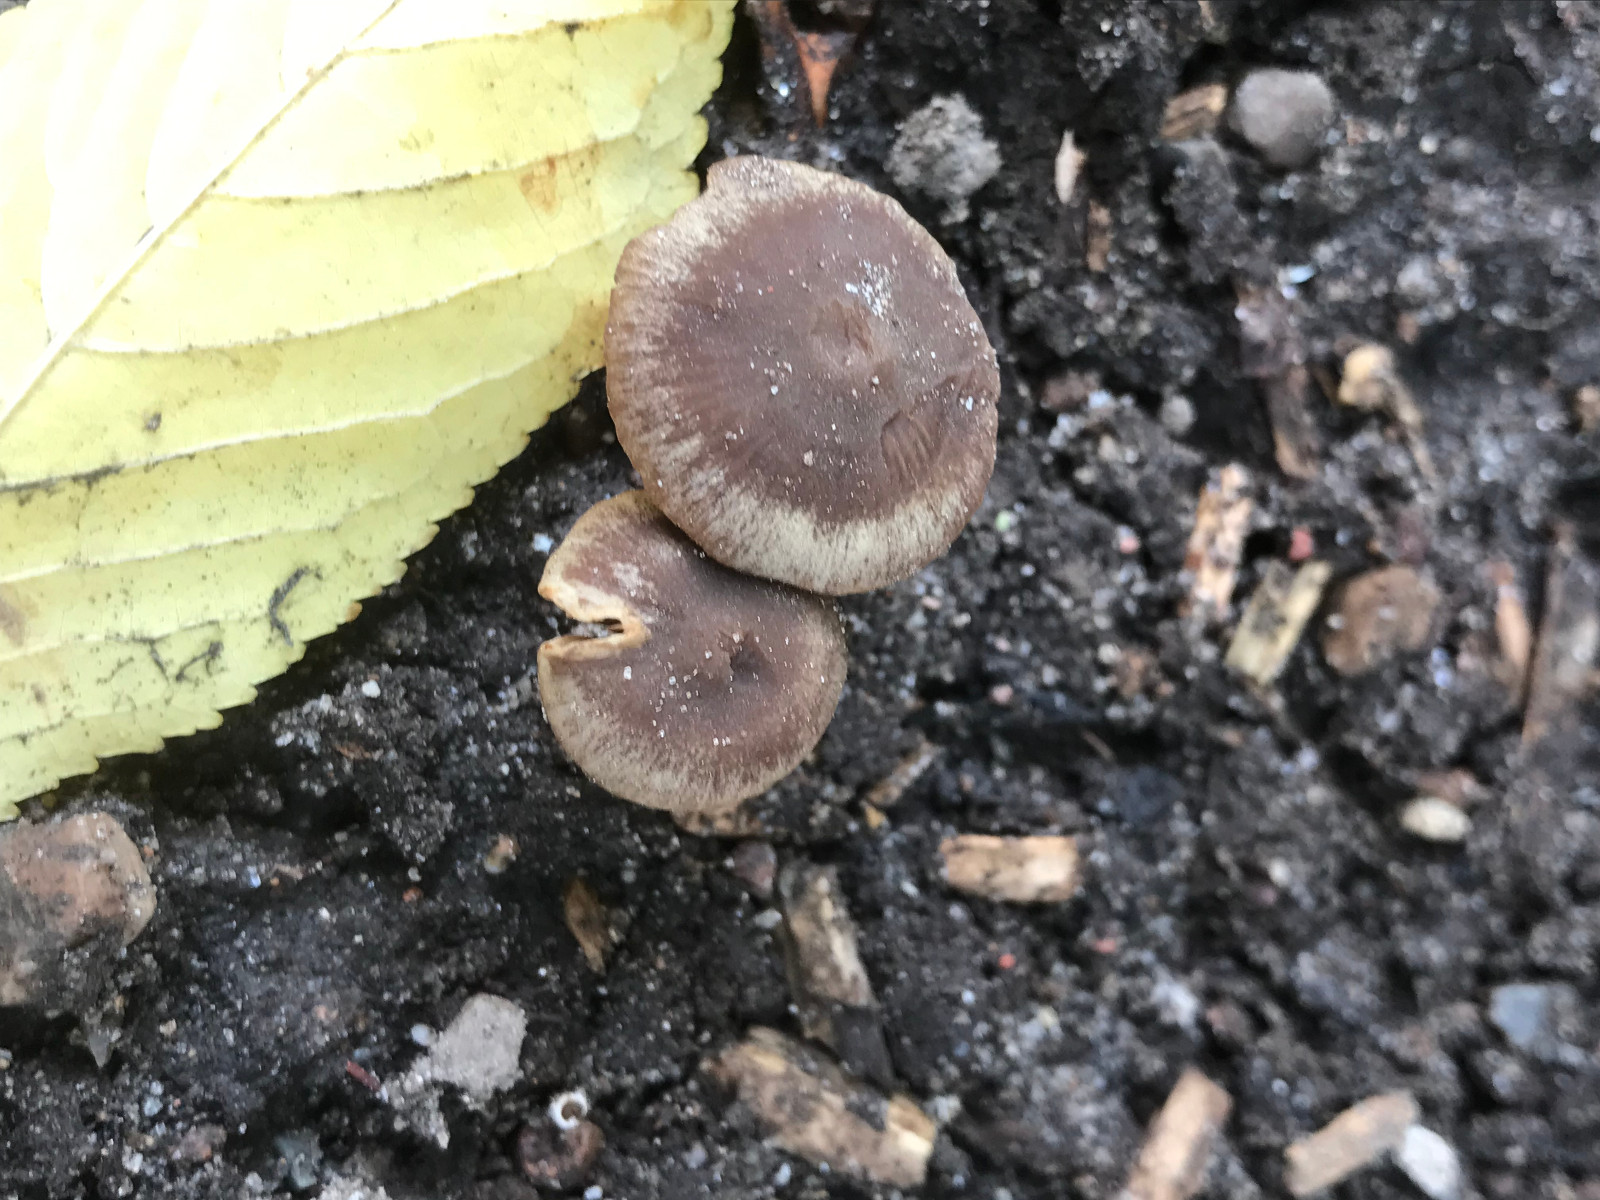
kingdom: Fungi
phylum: Basidiomycota
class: Agaricomycetes
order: Agaricales
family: Psathyrellaceae
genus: Psathyrella
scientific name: Psathyrella
